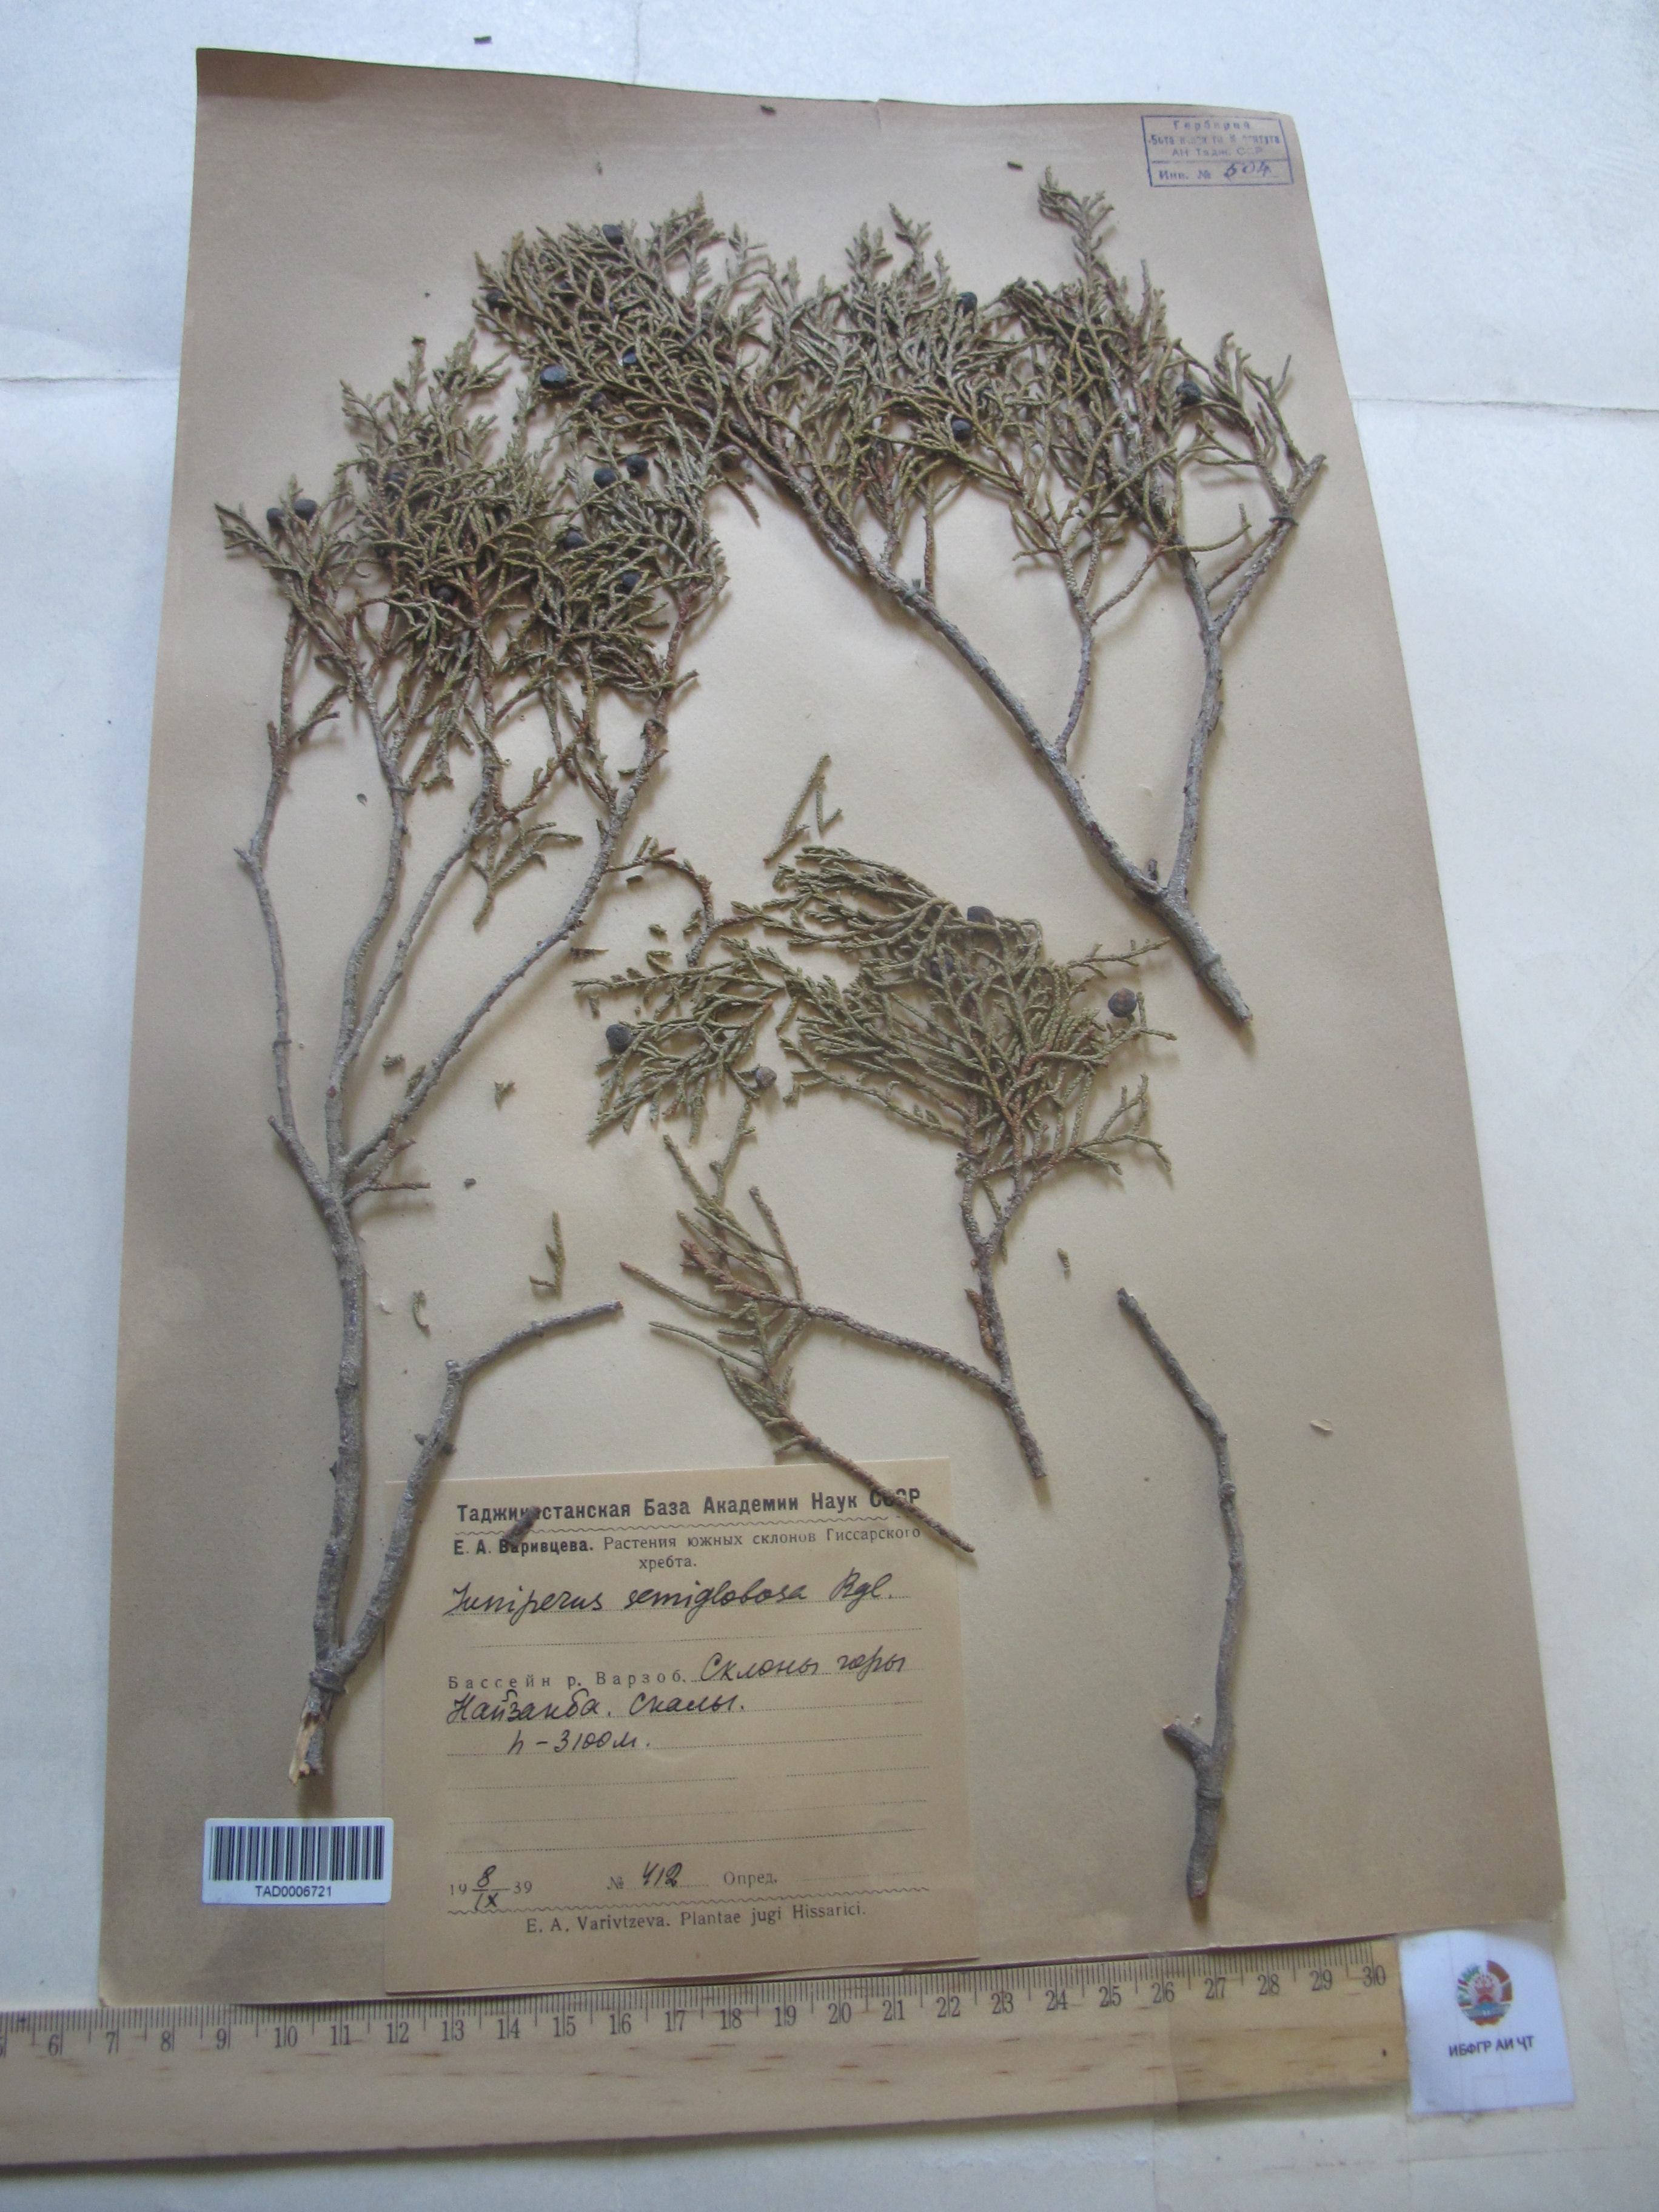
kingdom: Plantae
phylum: Tracheophyta
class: Pinopsida
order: Pinales
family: Cupressaceae
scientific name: Cupressaceae
